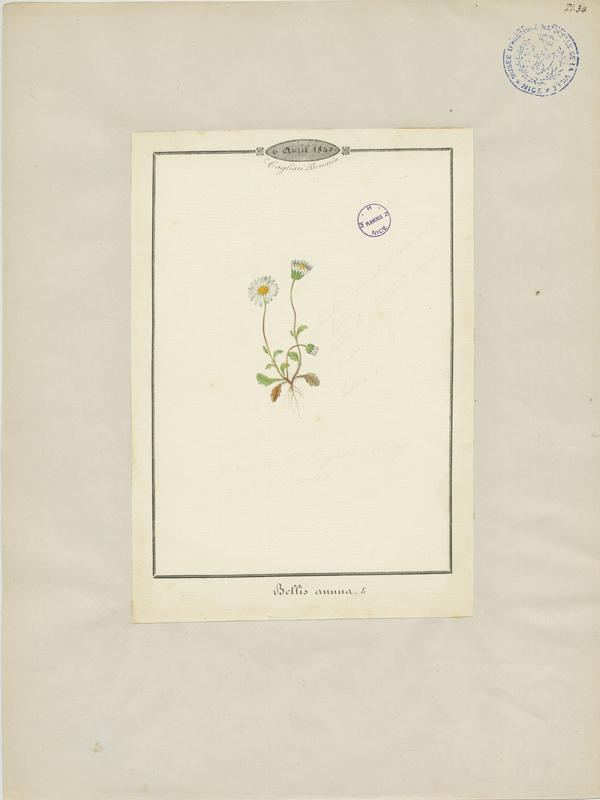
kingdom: Plantae
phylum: Tracheophyta
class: Magnoliopsida
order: Asterales
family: Asteraceae
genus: Bellis
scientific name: Bellis annua
